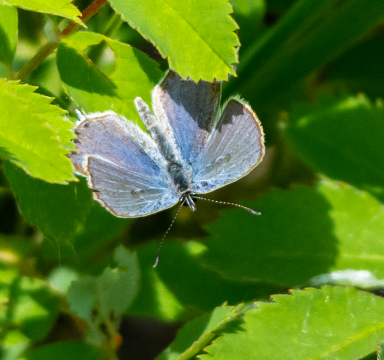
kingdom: Animalia
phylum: Arthropoda
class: Insecta
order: Lepidoptera
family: Lycaenidae
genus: Elkalyce
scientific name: Elkalyce amyntula
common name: Western Tailed-Blue
